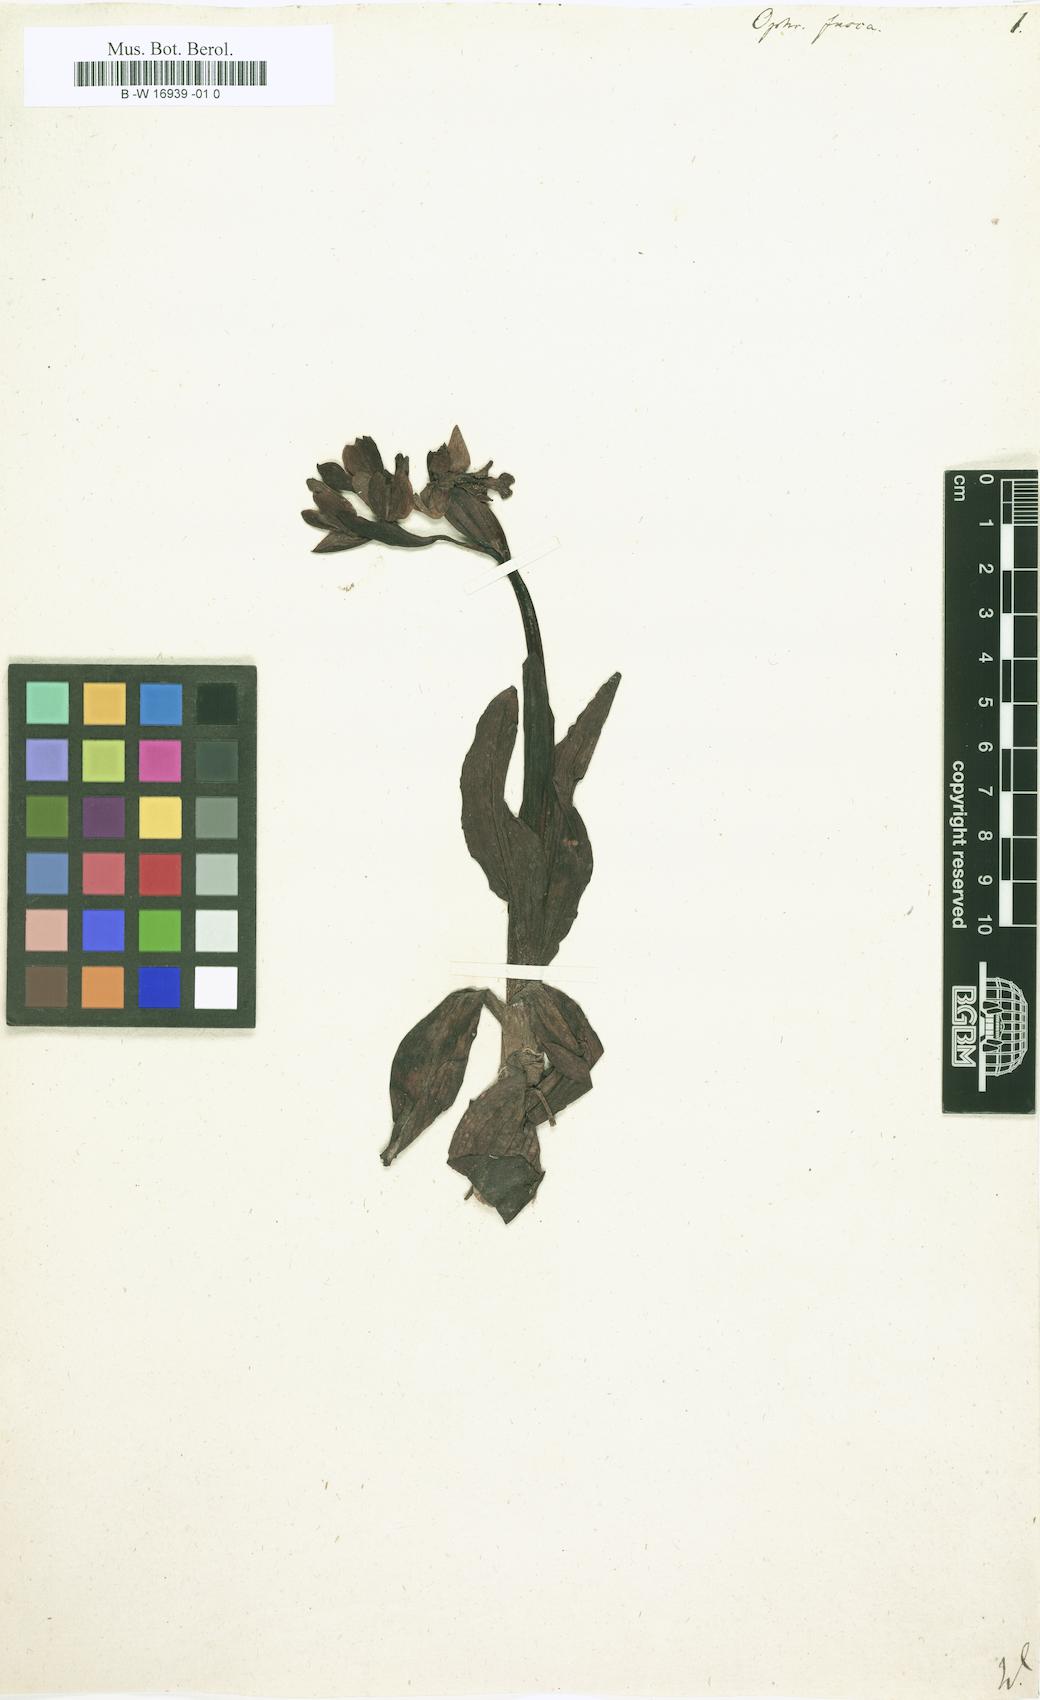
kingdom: Plantae
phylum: Tracheophyta
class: Liliopsida
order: Asparagales
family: Orchidaceae
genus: Ophrys
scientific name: Ophrys fusca
